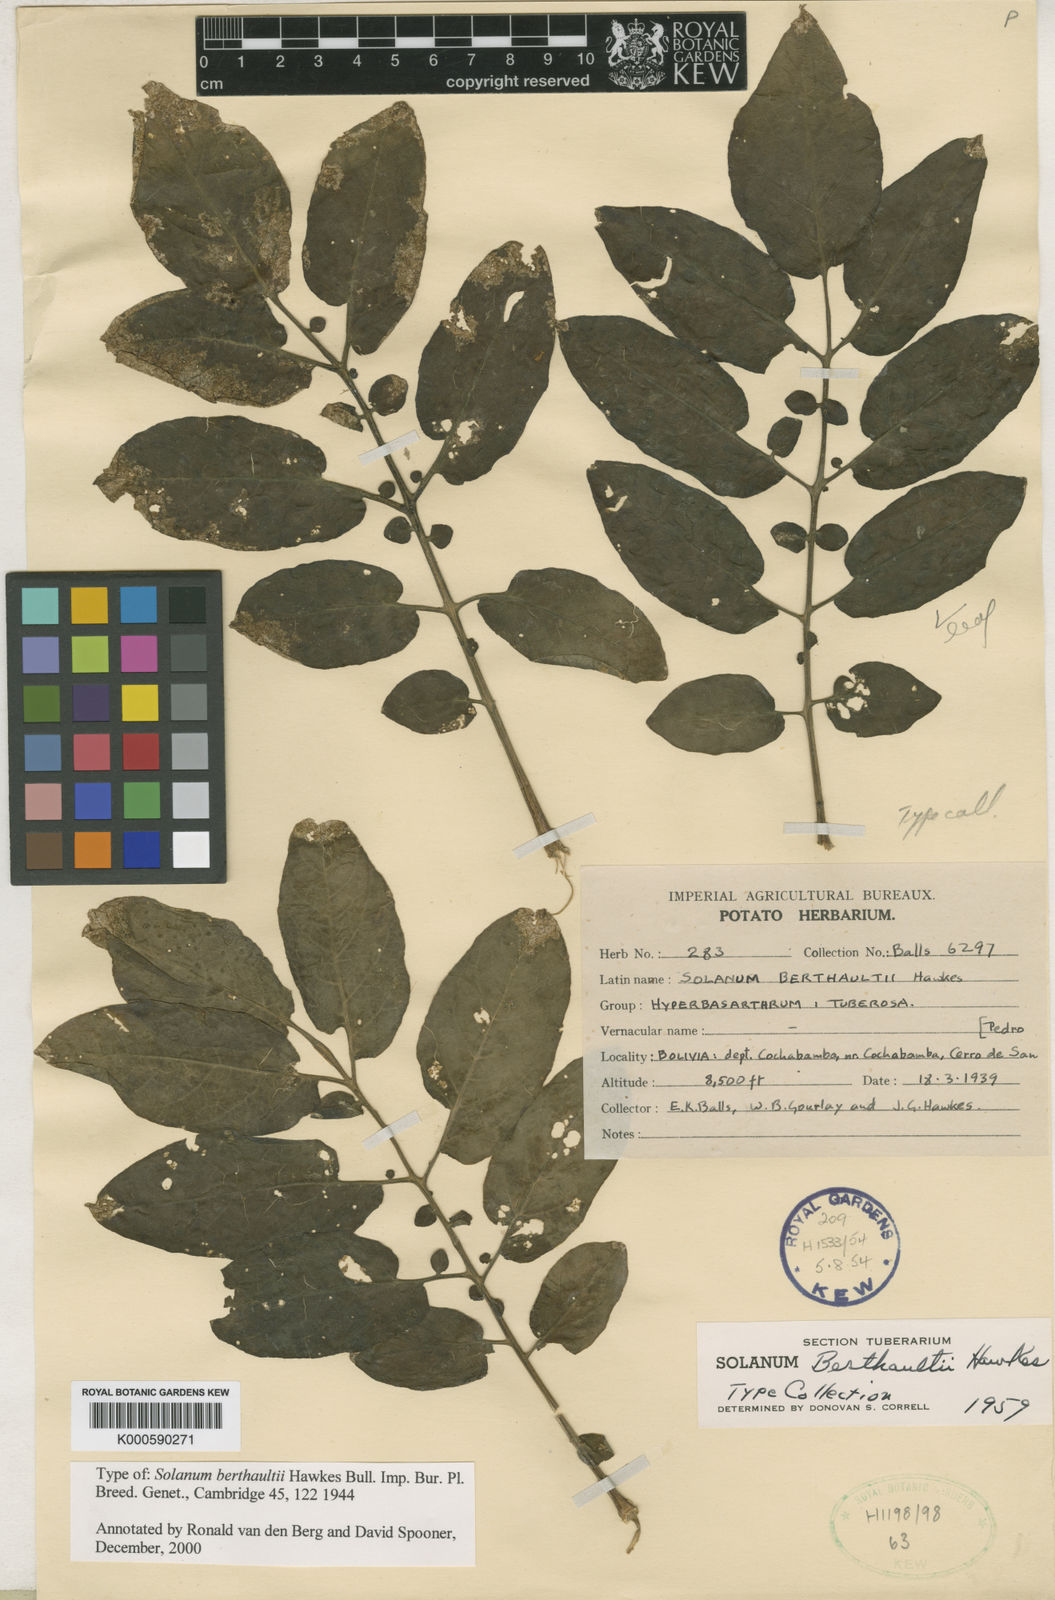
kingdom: Plantae
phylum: Tracheophyta
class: Magnoliopsida
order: Solanales
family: Solanaceae
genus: Solanum
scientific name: Solanum berthaultii
